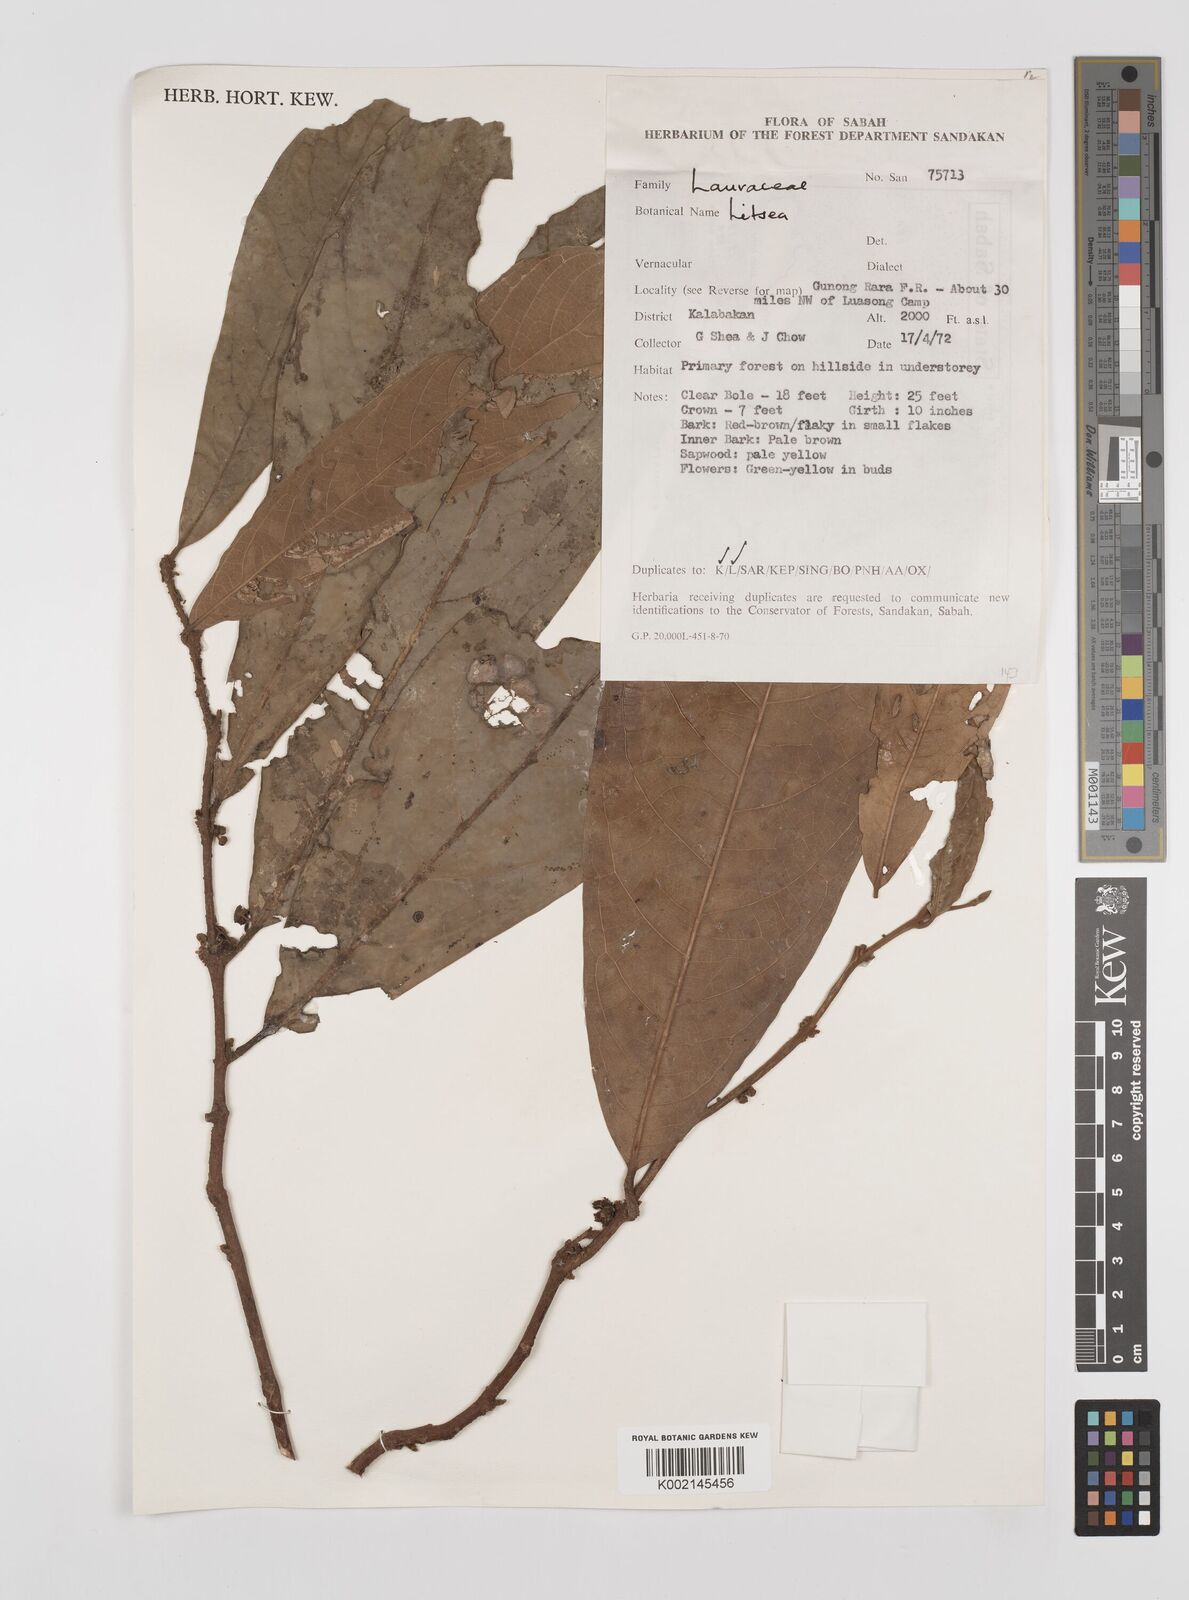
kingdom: Plantae
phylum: Tracheophyta
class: Magnoliopsida
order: Laurales
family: Lauraceae
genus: Litsea
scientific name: Litsea
